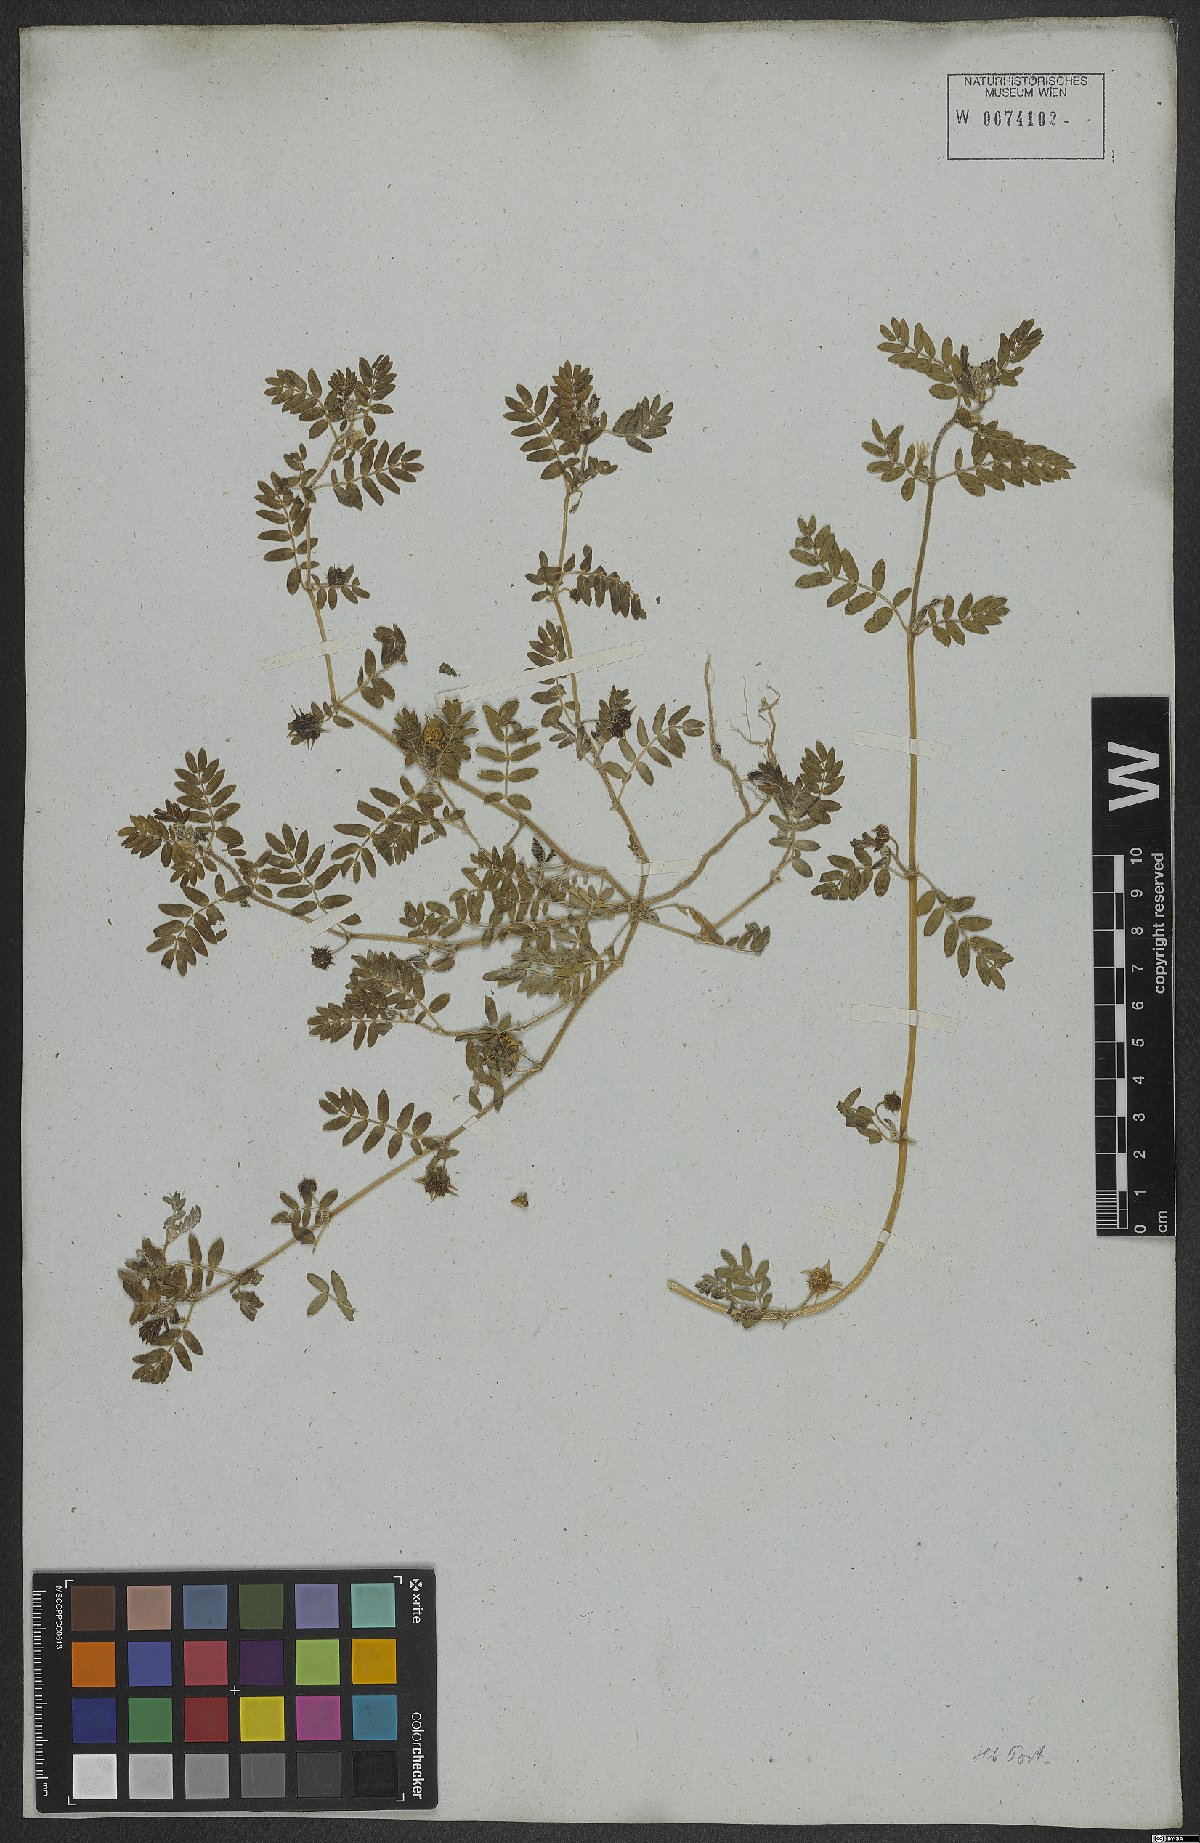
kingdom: Plantae
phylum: Tracheophyta
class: Magnoliopsida
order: Zygophyllales
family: Zygophyllaceae
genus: Tribulus
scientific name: Tribulus terrestris
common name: Puncturevine
